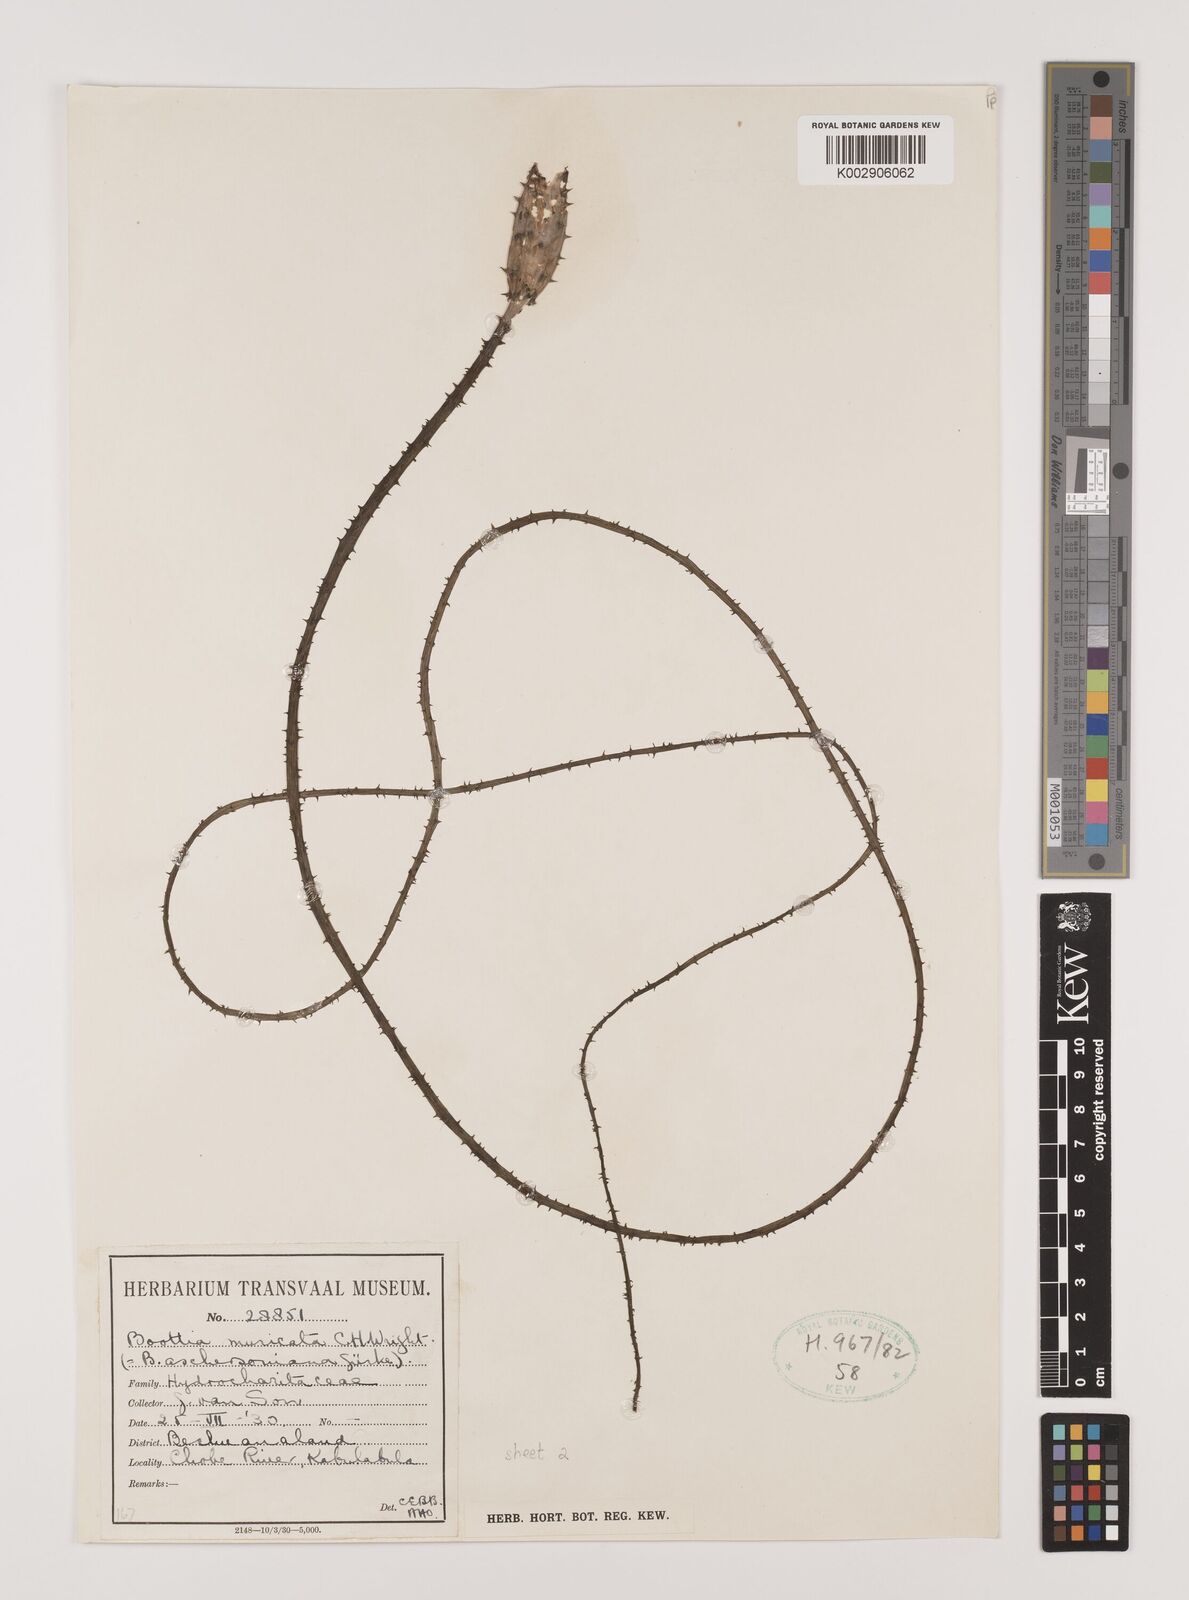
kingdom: Plantae
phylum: Tracheophyta
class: Liliopsida
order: Alismatales
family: Hydrocharitaceae
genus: Ottelia
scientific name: Ottelia muricata
